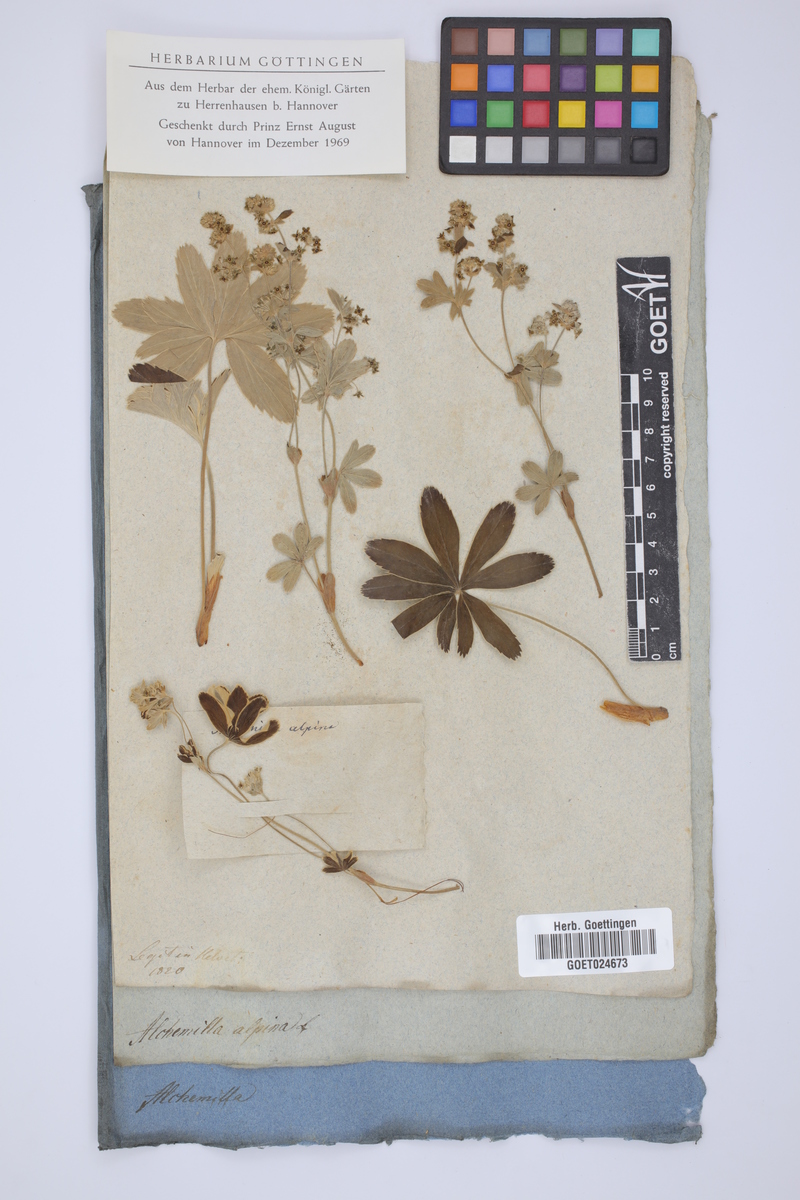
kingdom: Plantae
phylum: Tracheophyta
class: Magnoliopsida
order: Rosales
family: Rosaceae
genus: Alchemilla
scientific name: Alchemilla alpina
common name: Alpine lady's-mantle
